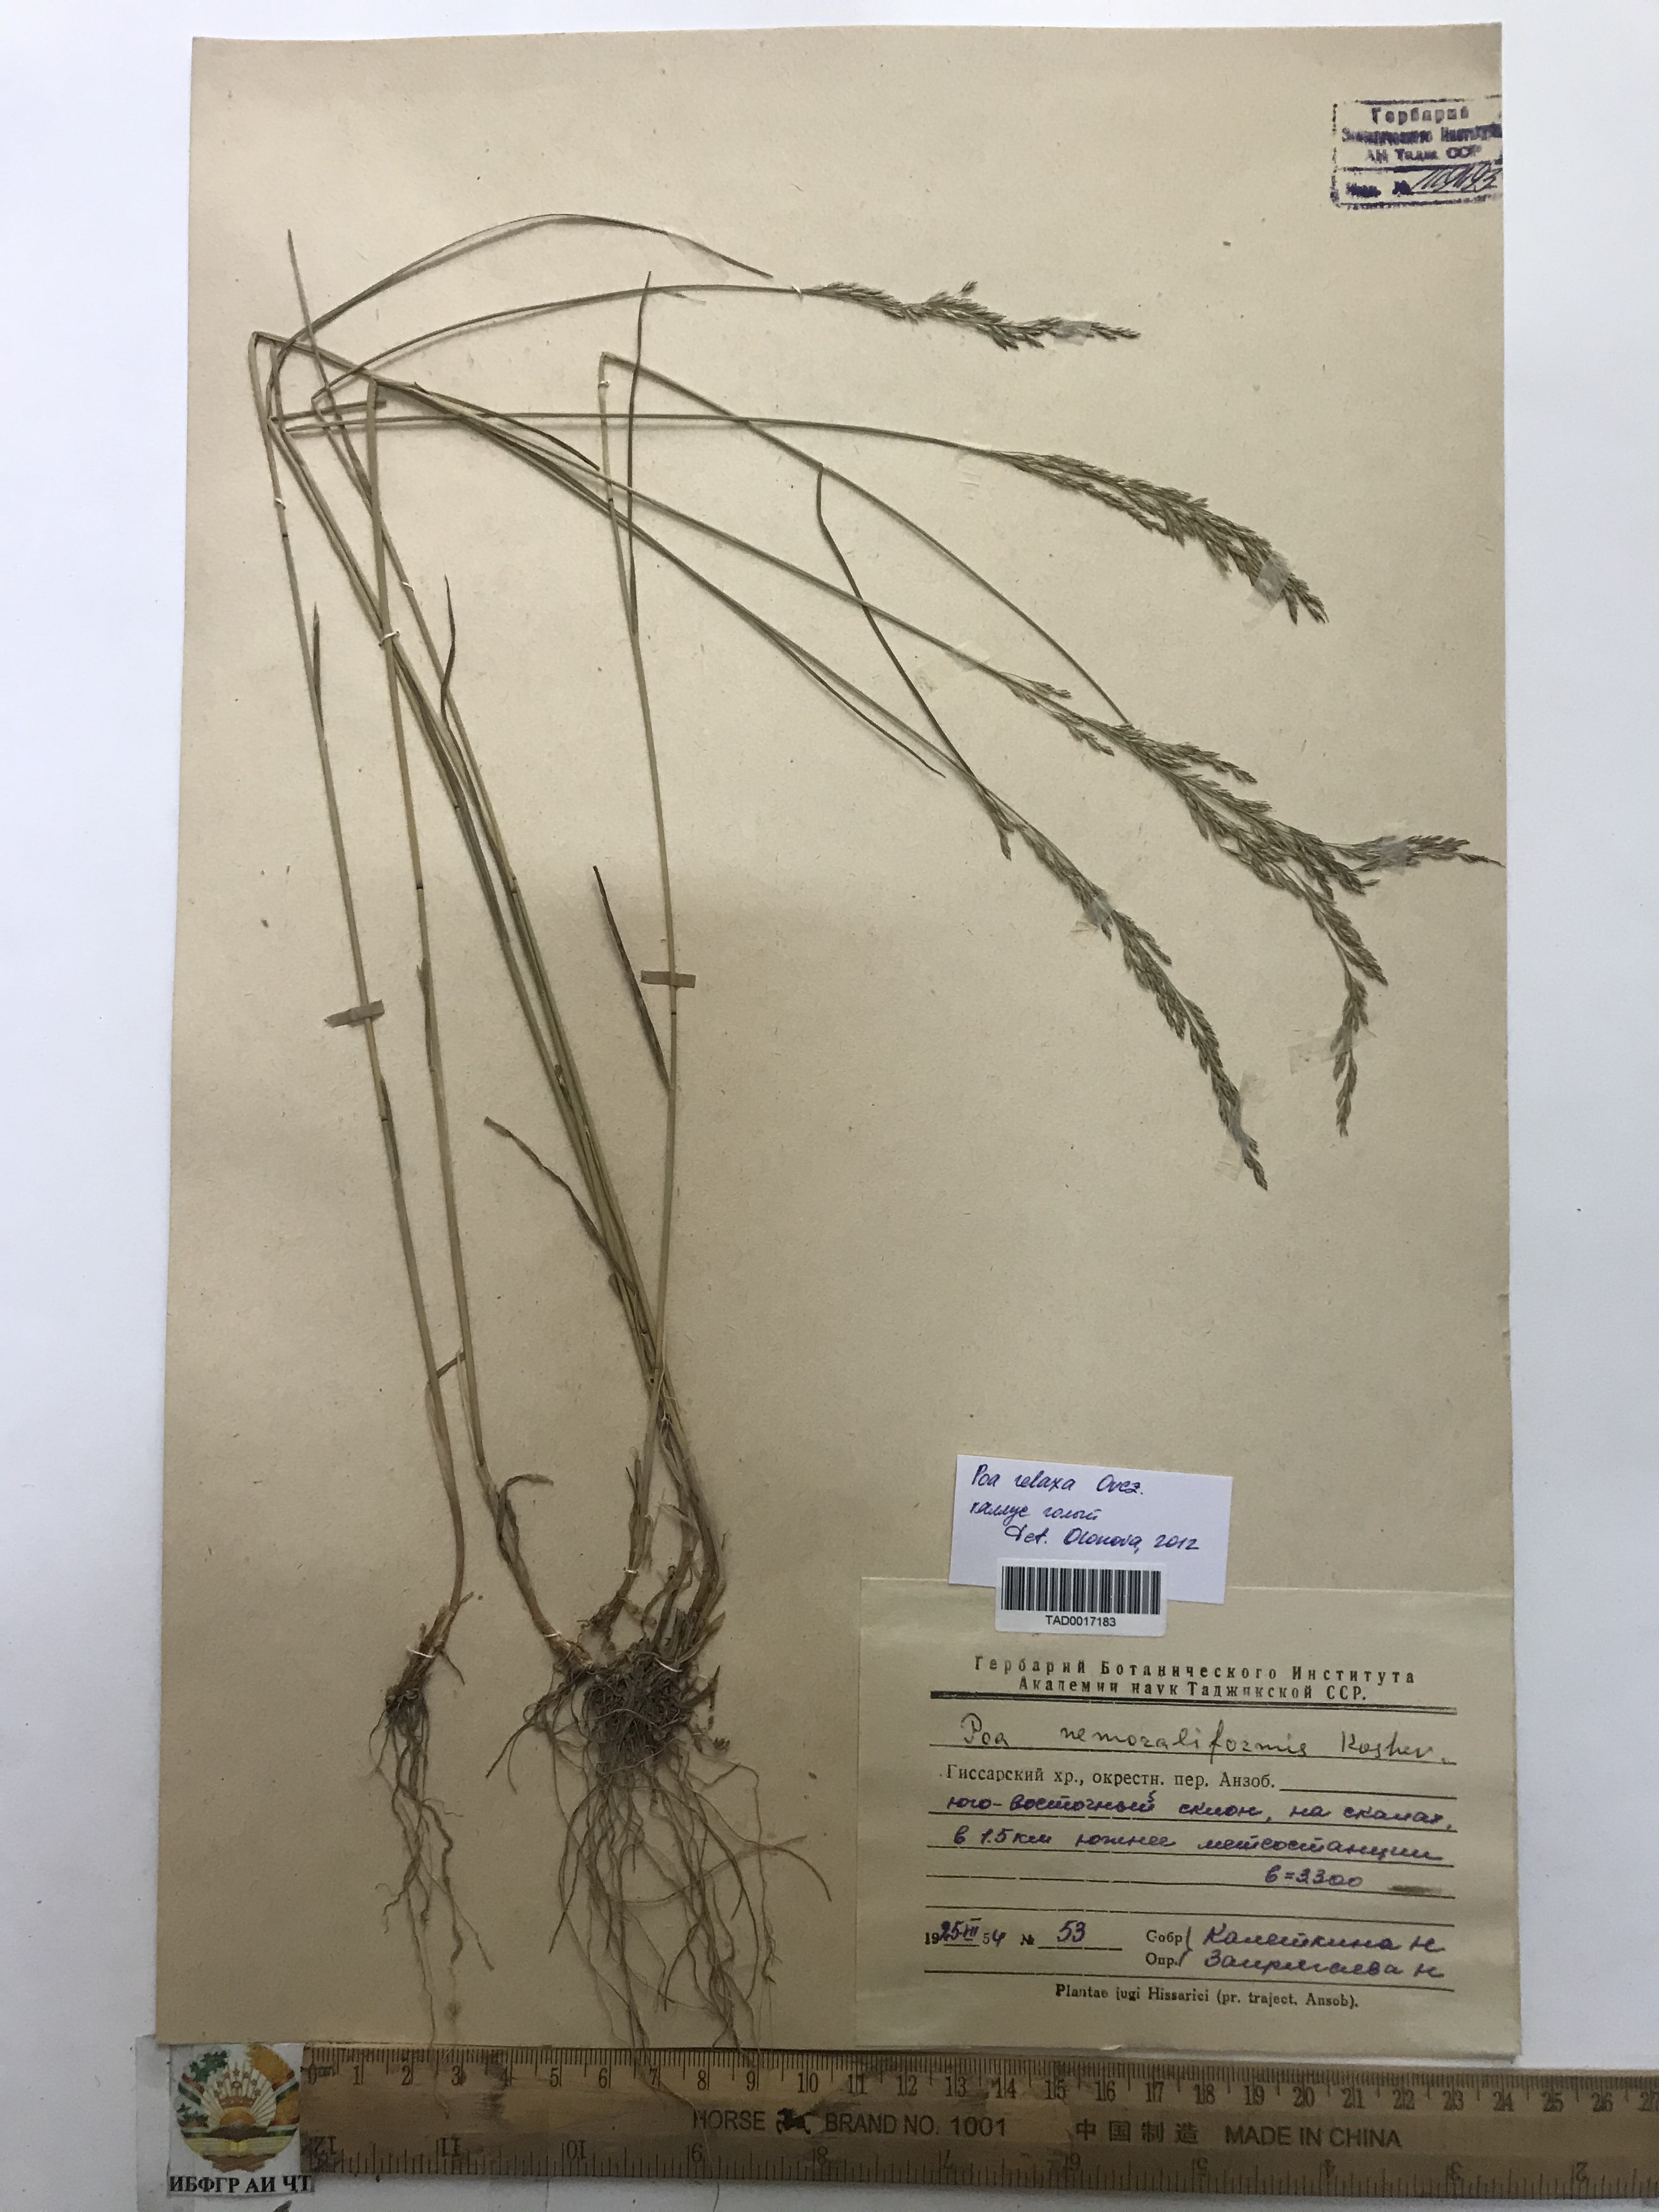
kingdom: Plantae
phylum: Tracheophyta
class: Liliopsida
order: Poales
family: Poaceae
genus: Poa
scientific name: Poa urssulensis
